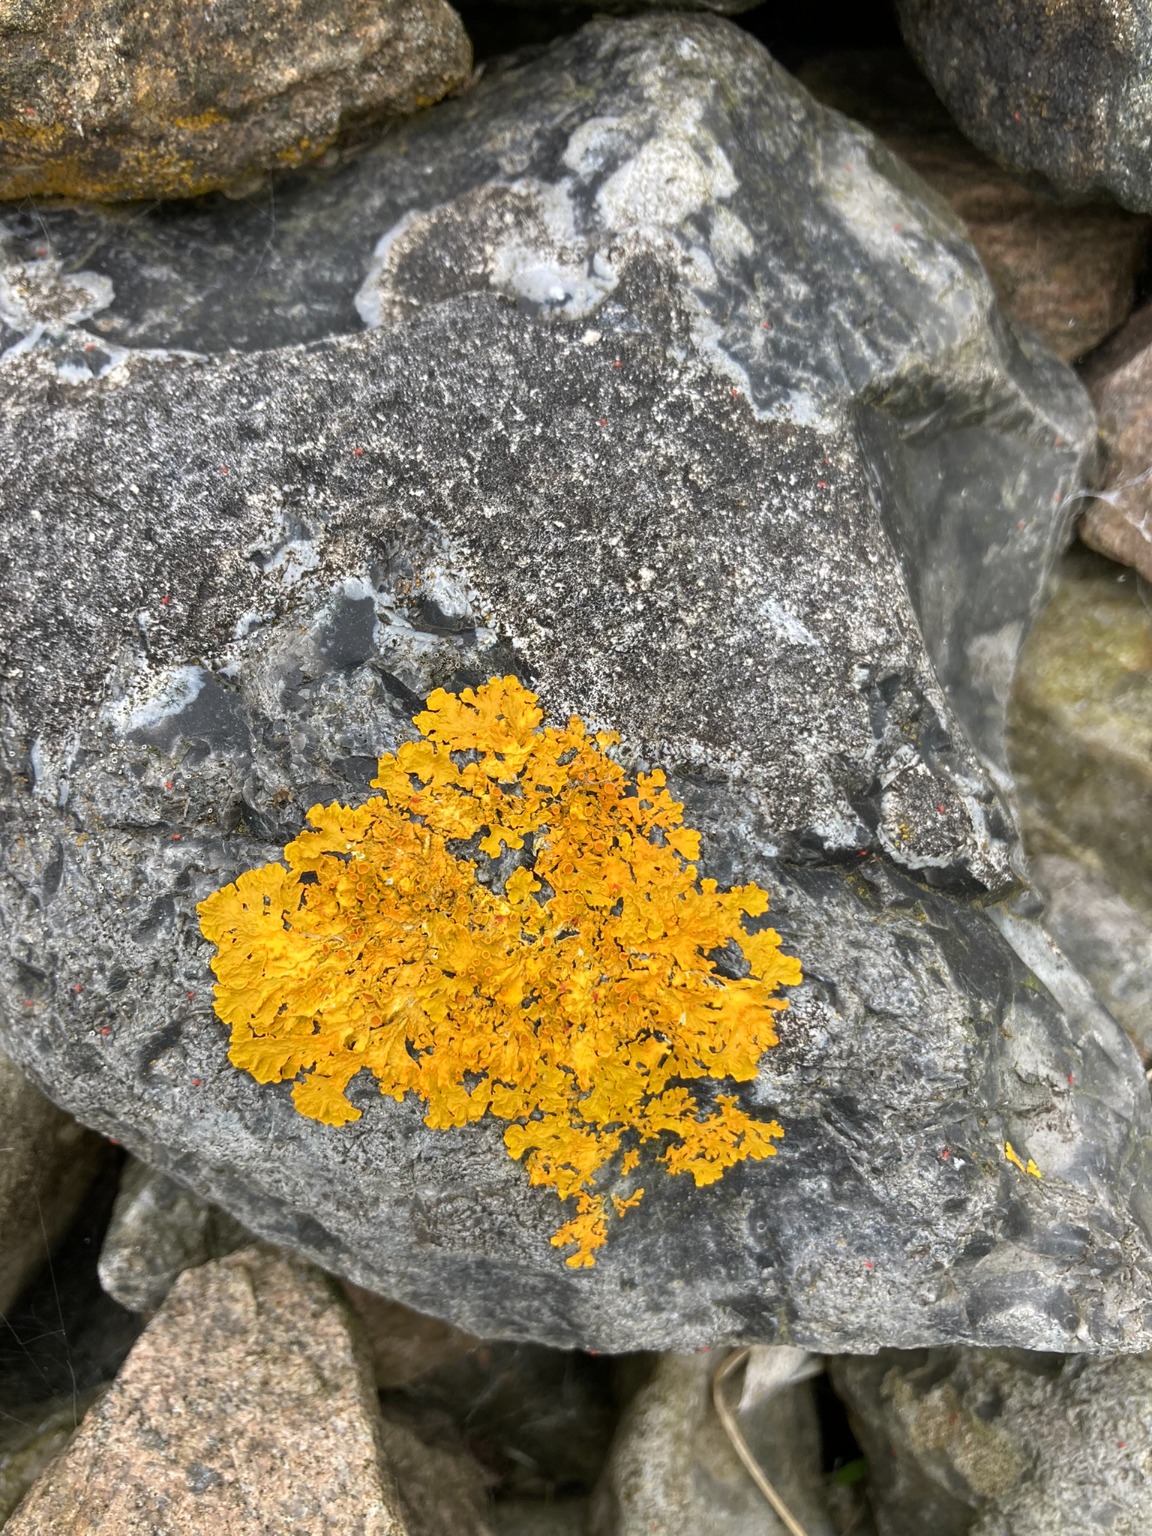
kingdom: Fungi
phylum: Ascomycota
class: Lecanoromycetes
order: Teloschistales
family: Teloschistaceae
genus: Xanthoria
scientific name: Xanthoria parietina
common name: Almindelig væggelav
